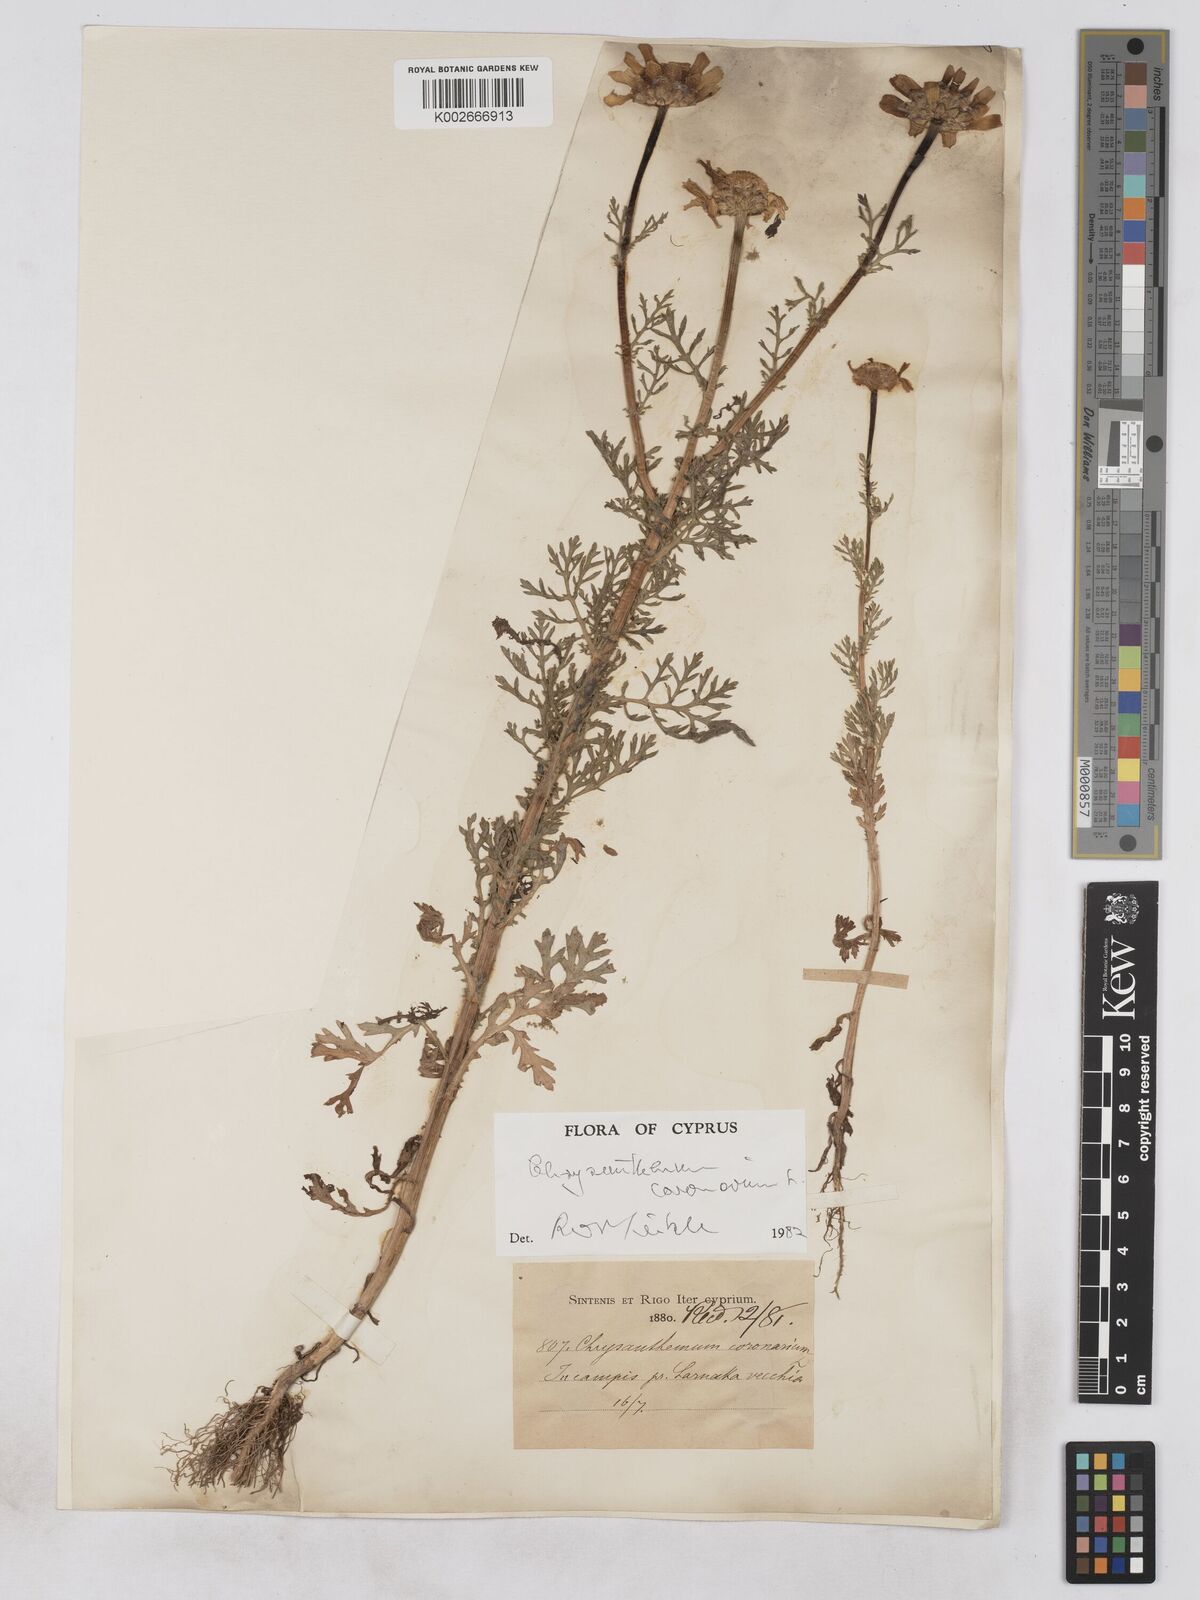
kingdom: Plantae
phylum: Tracheophyta
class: Magnoliopsida
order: Asterales
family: Asteraceae
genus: Glebionis
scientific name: Glebionis coronaria
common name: Crowndaisy
